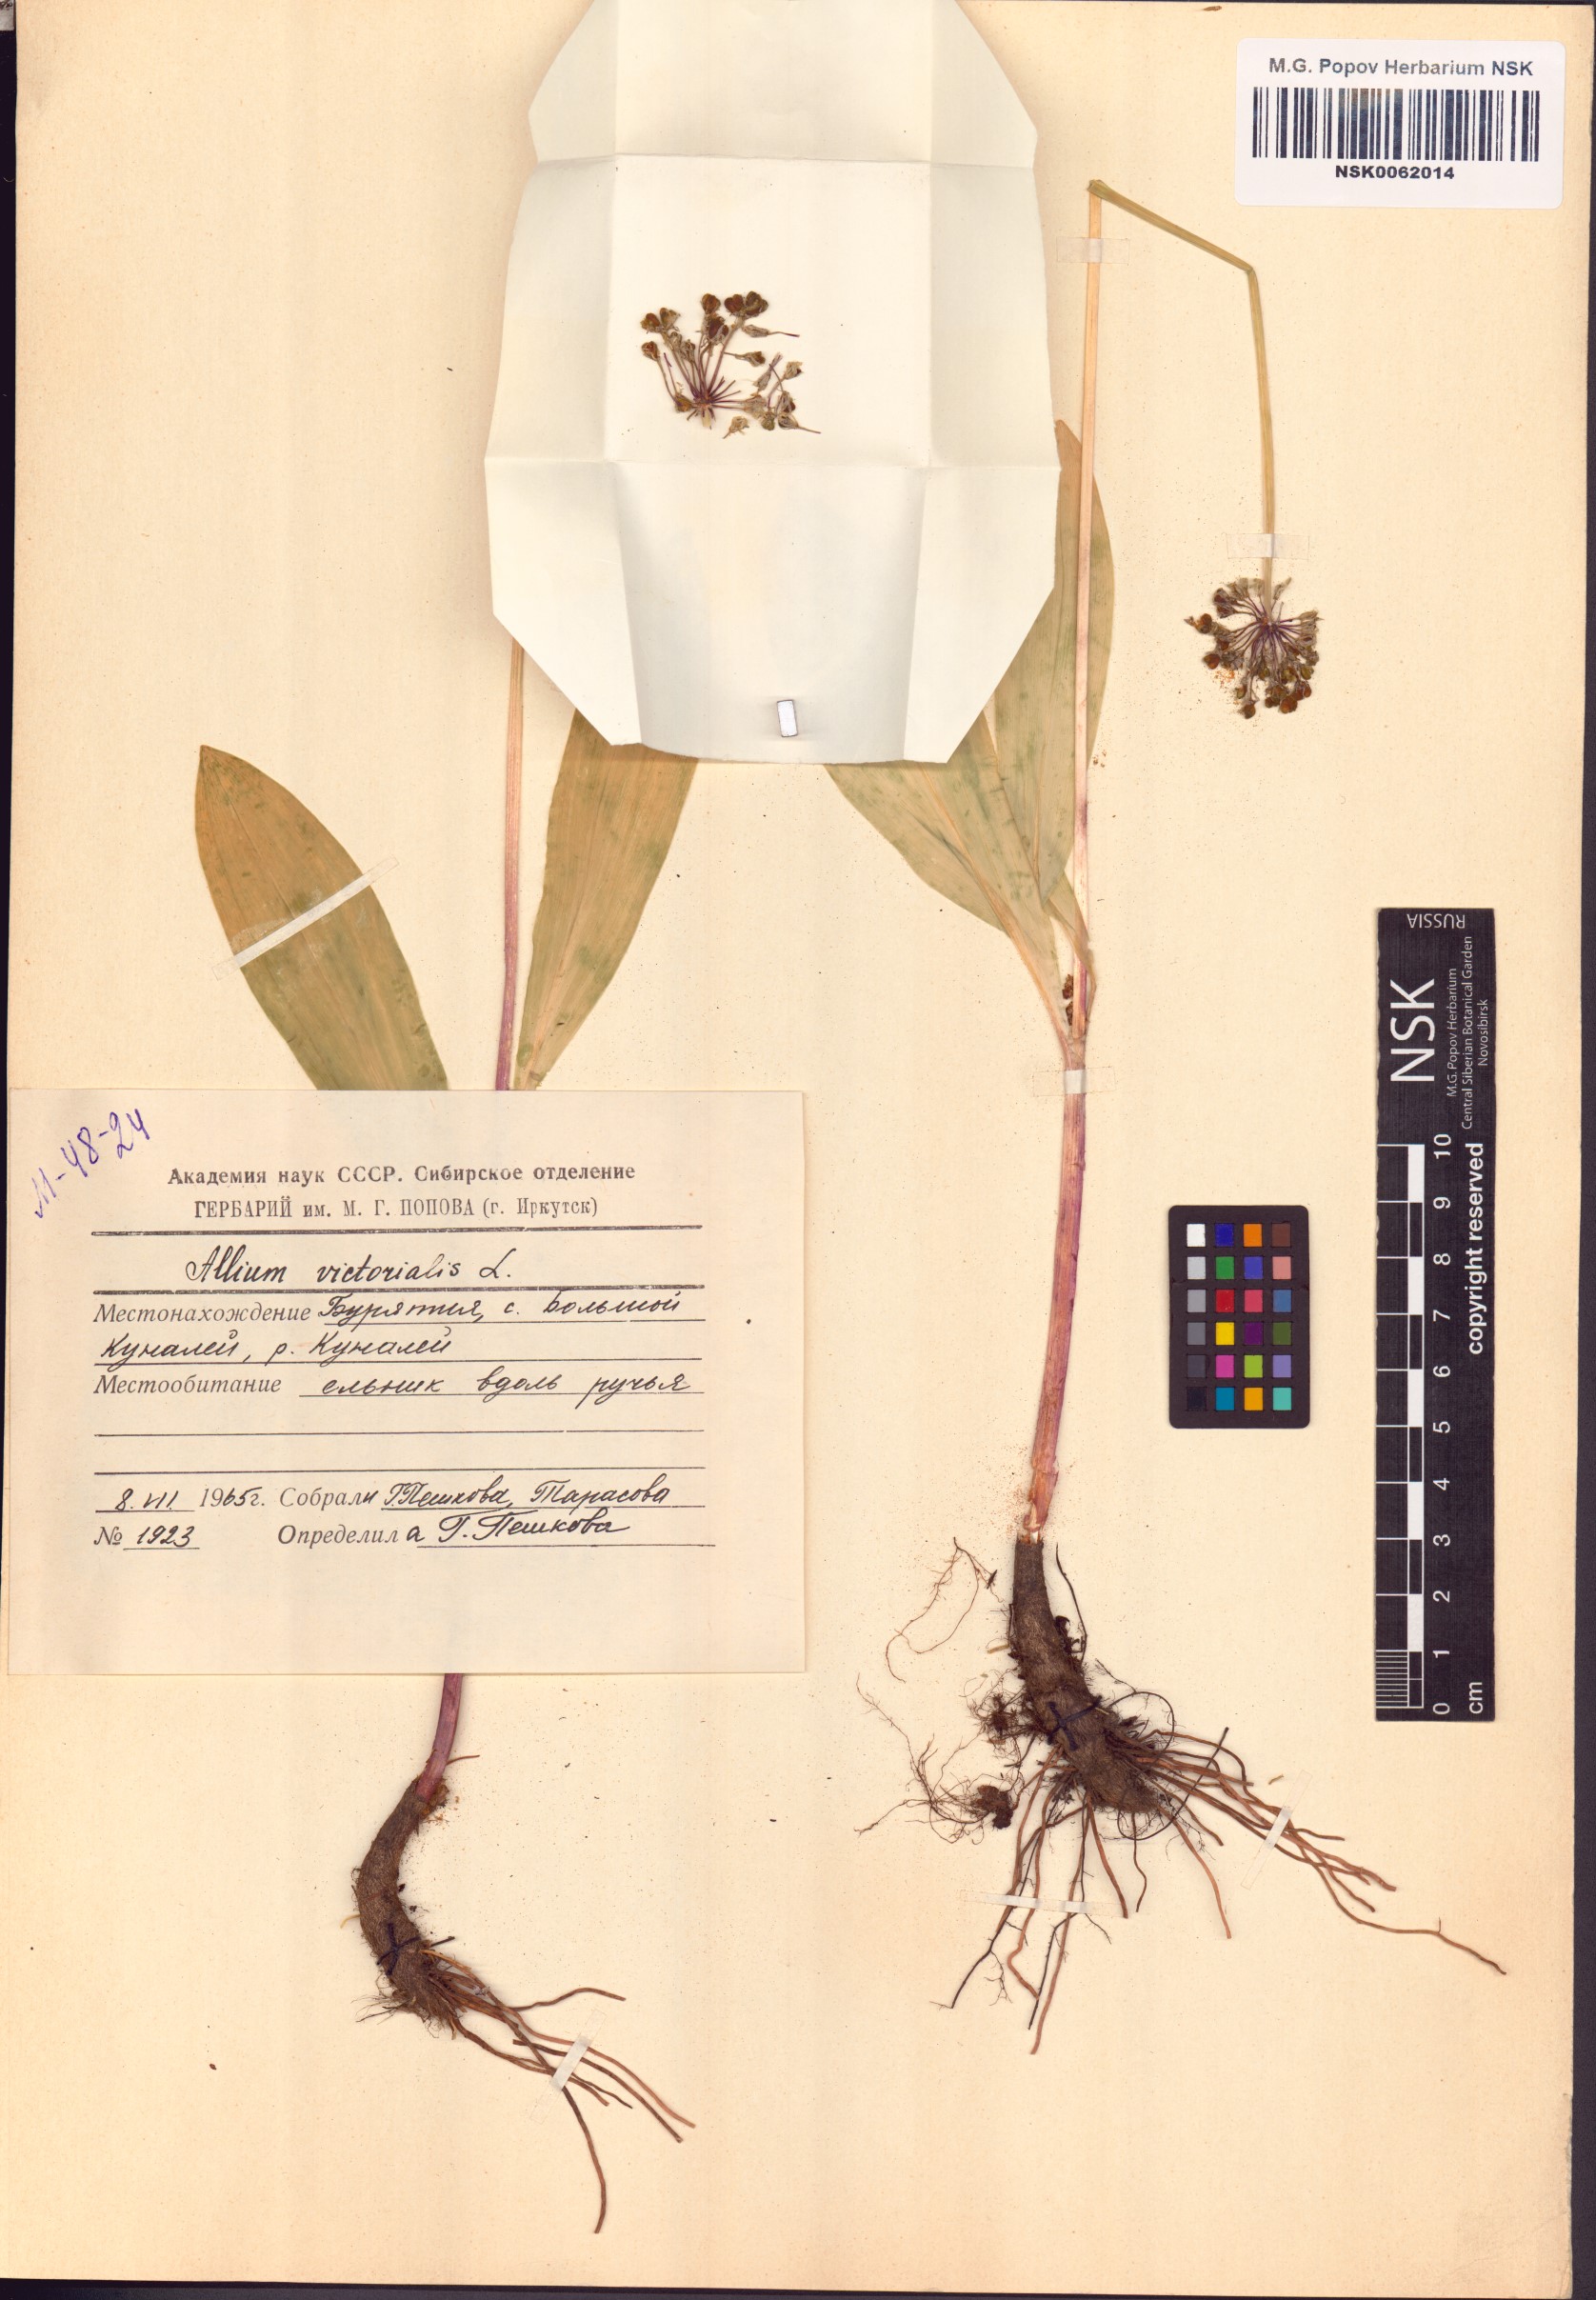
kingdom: Plantae
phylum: Tracheophyta
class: Liliopsida
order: Asparagales
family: Amaryllidaceae
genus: Allium
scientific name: Allium victorialis
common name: Alpine leek
